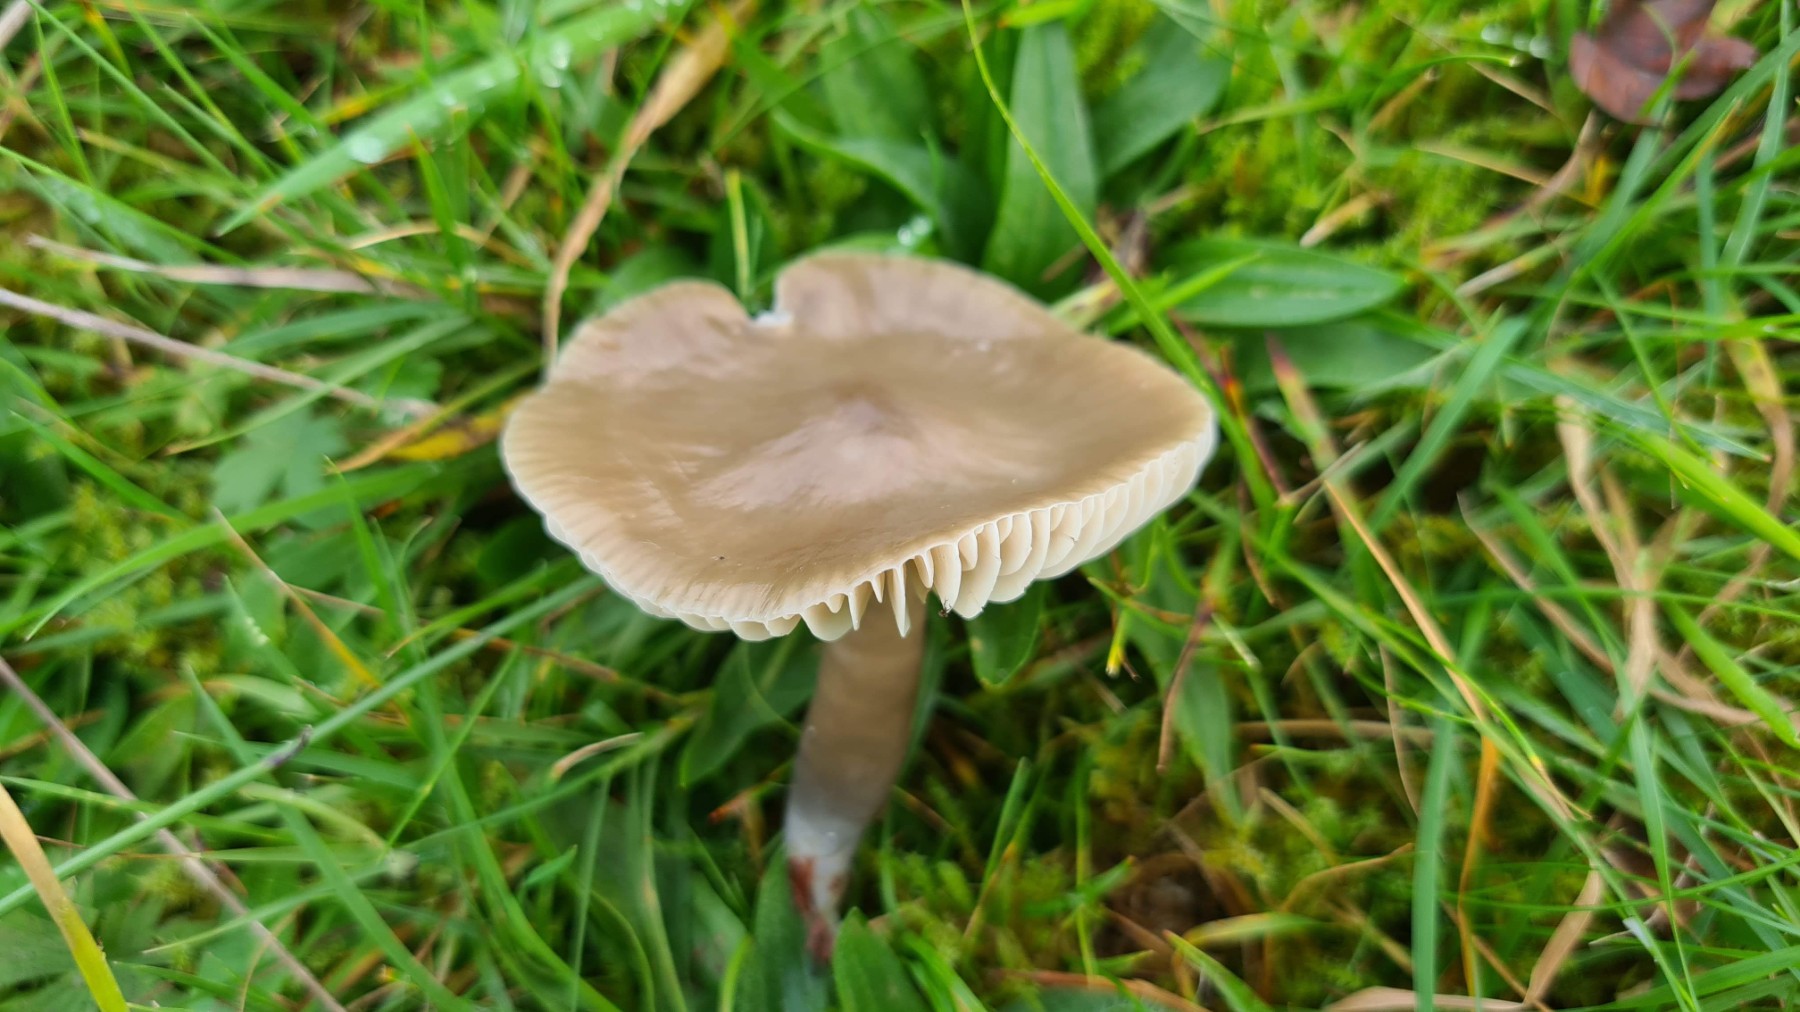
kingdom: Fungi
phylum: Basidiomycota
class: Agaricomycetes
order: Agaricales
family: Hygrophoraceae
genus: Gliophorus
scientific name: Gliophorus irrigatus
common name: slimet vokshat
